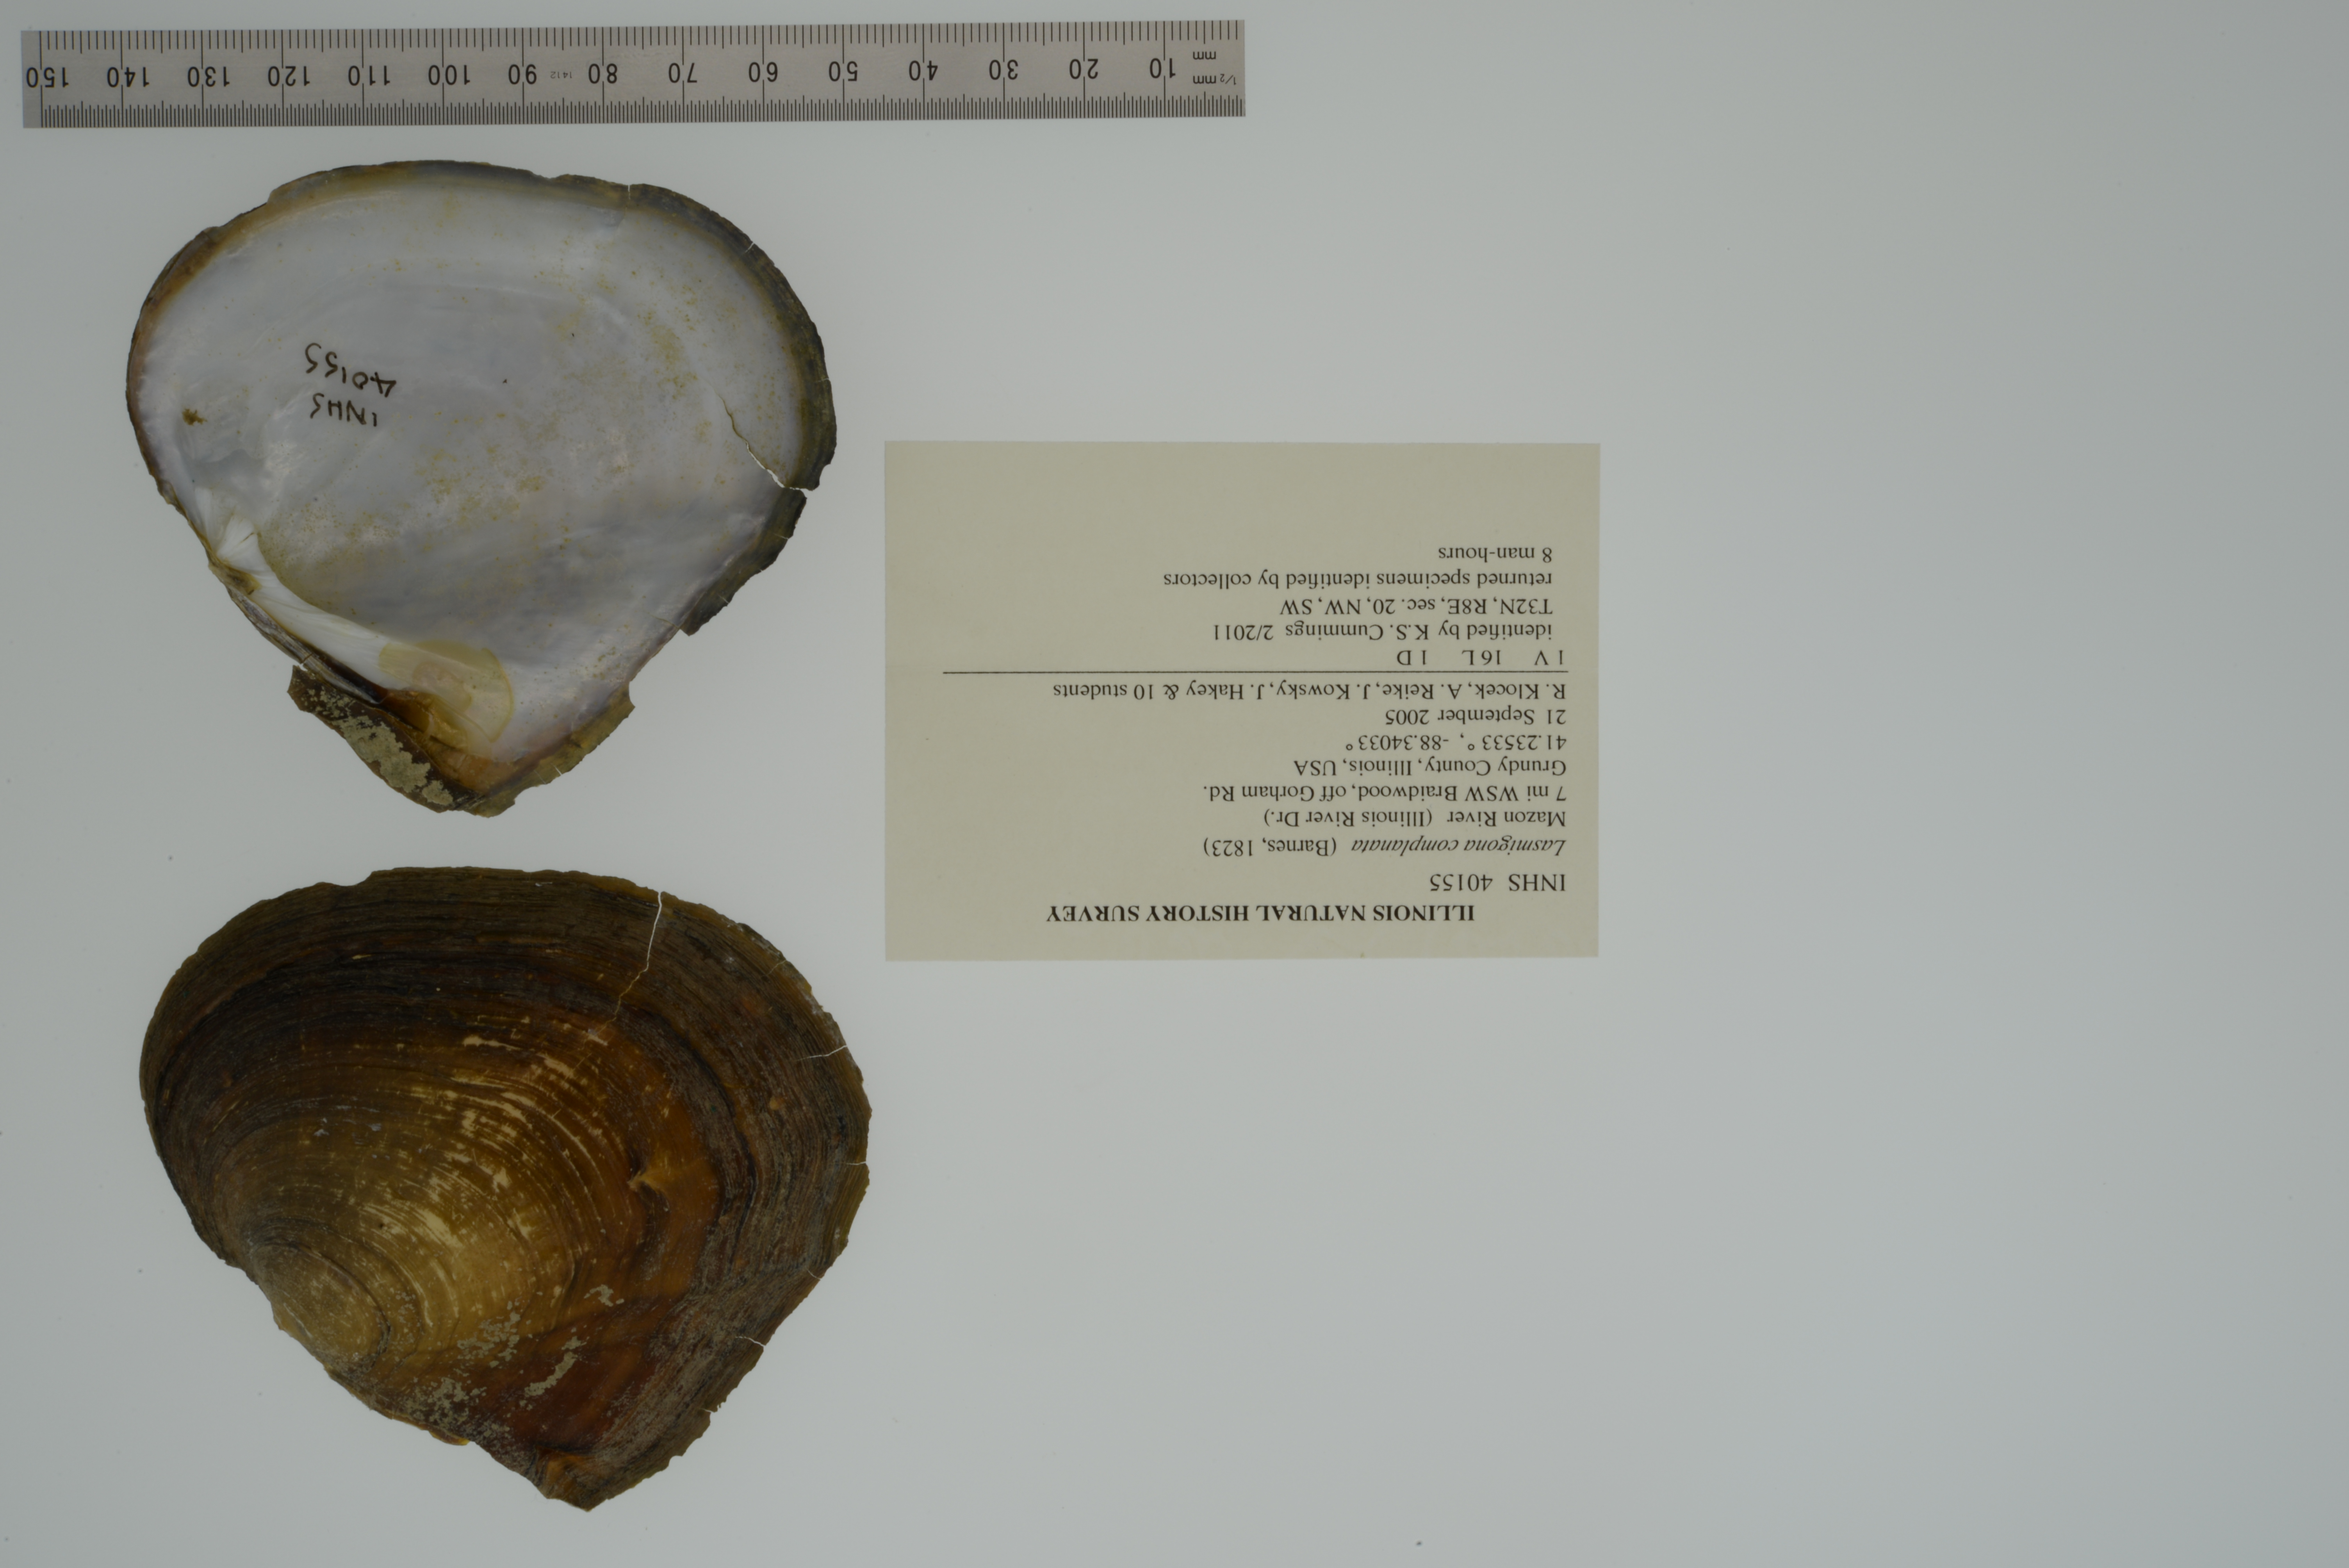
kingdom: Animalia
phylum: Mollusca
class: Bivalvia
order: Unionida
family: Unionidae
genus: Lasmigona
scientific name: Lasmigona complanata
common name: White heelsplitter
